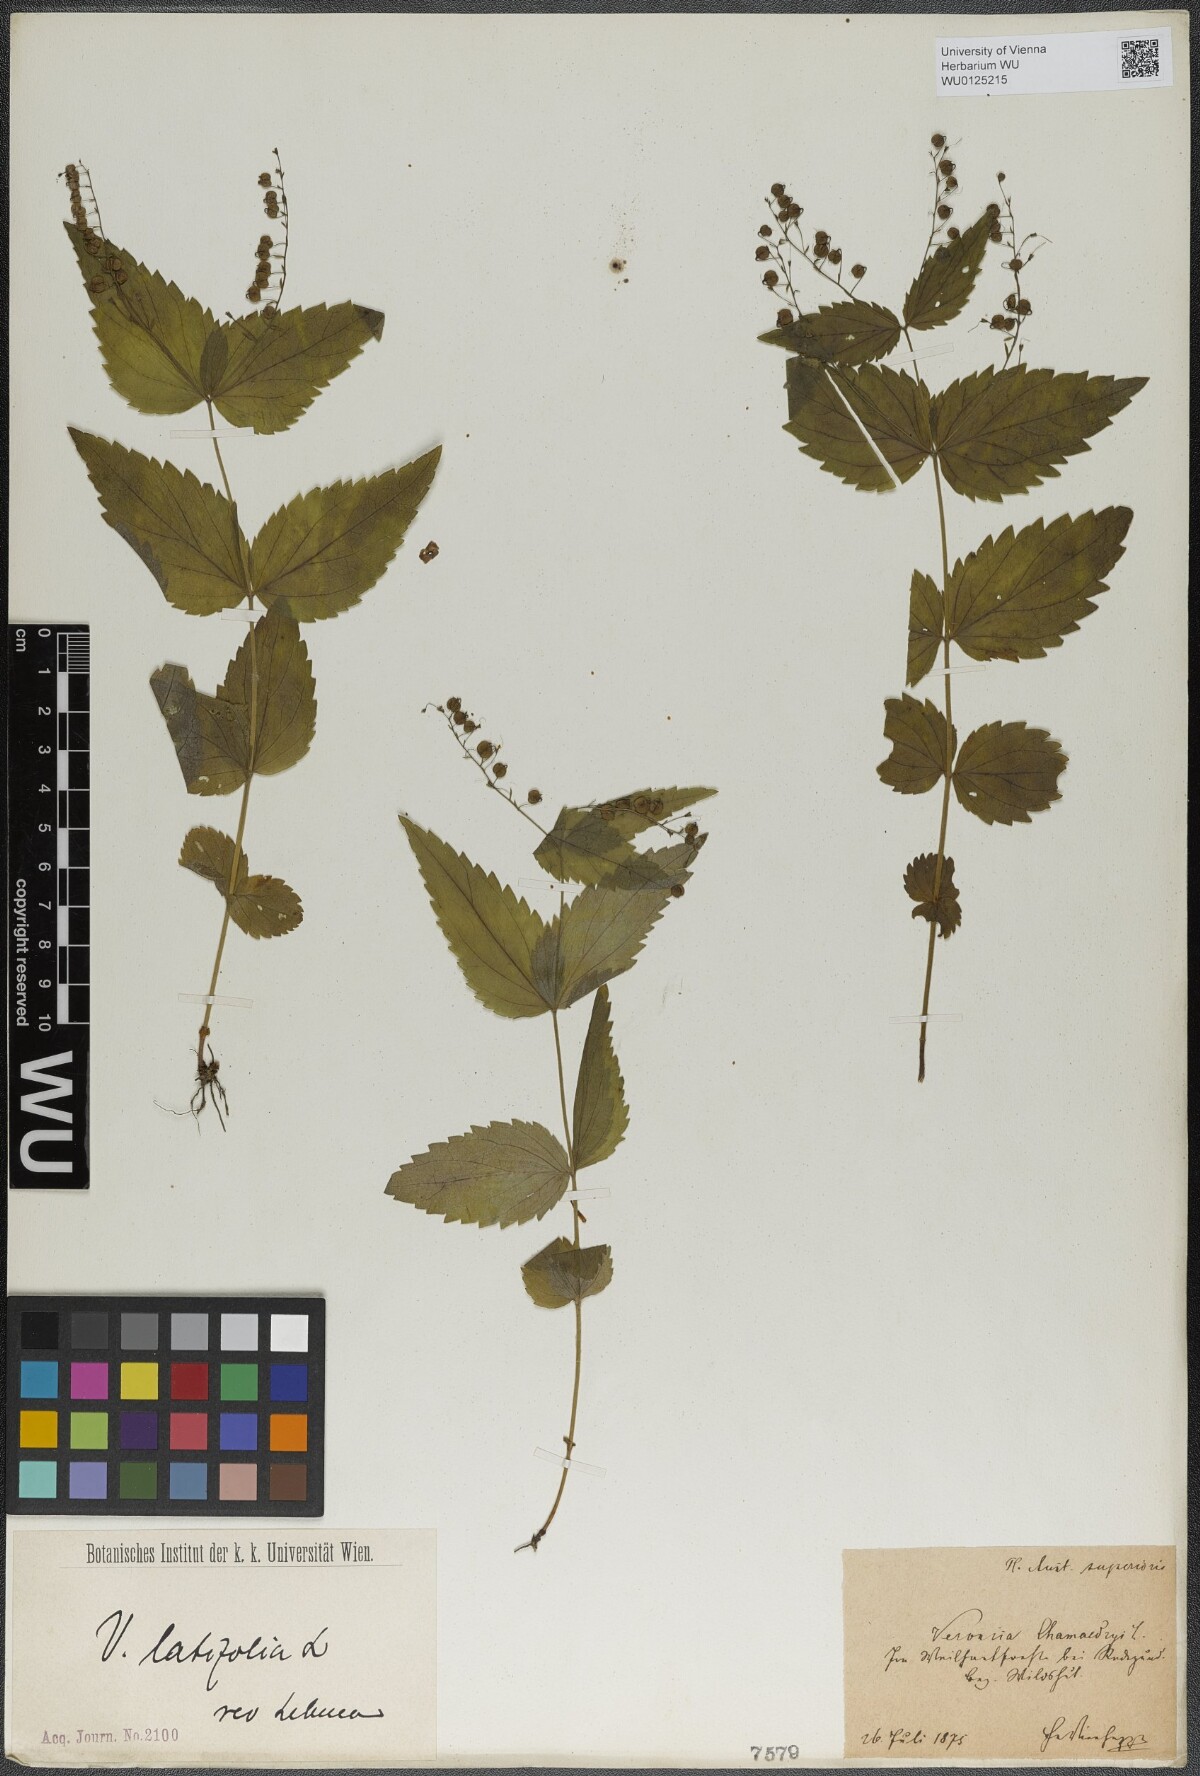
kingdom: Plantae
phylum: Tracheophyta
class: Magnoliopsida
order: Lamiales
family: Plantaginaceae
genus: Veronica
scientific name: Veronica urticifolia
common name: Nettle-leaf speedwell
